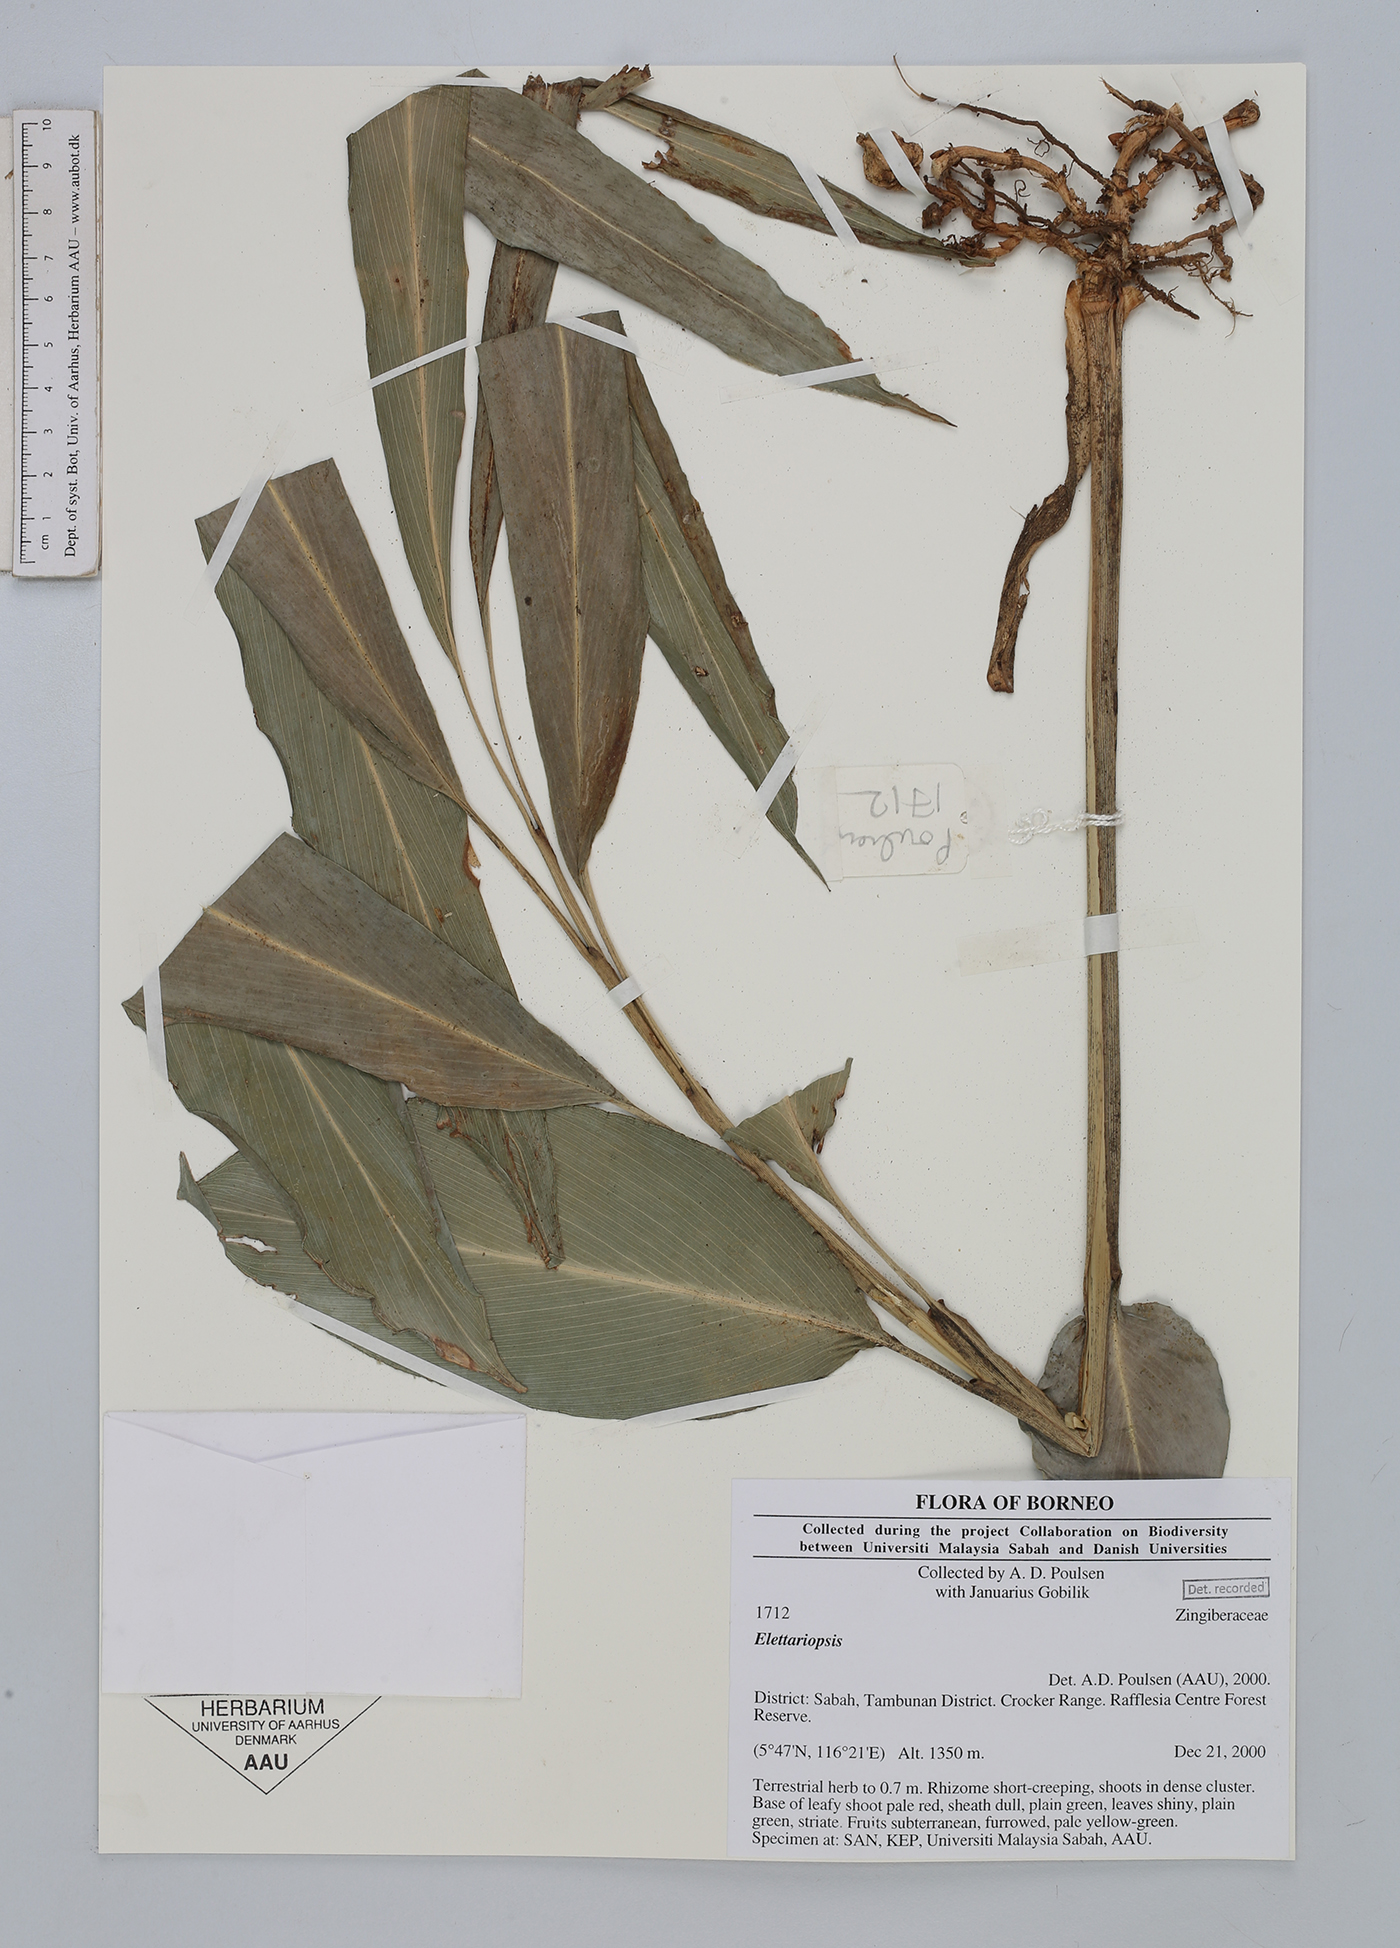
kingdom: Plantae
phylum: Tracheophyta
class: Liliopsida
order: Zingiberales
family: Zingiberaceae
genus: Amomum
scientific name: Amomum
